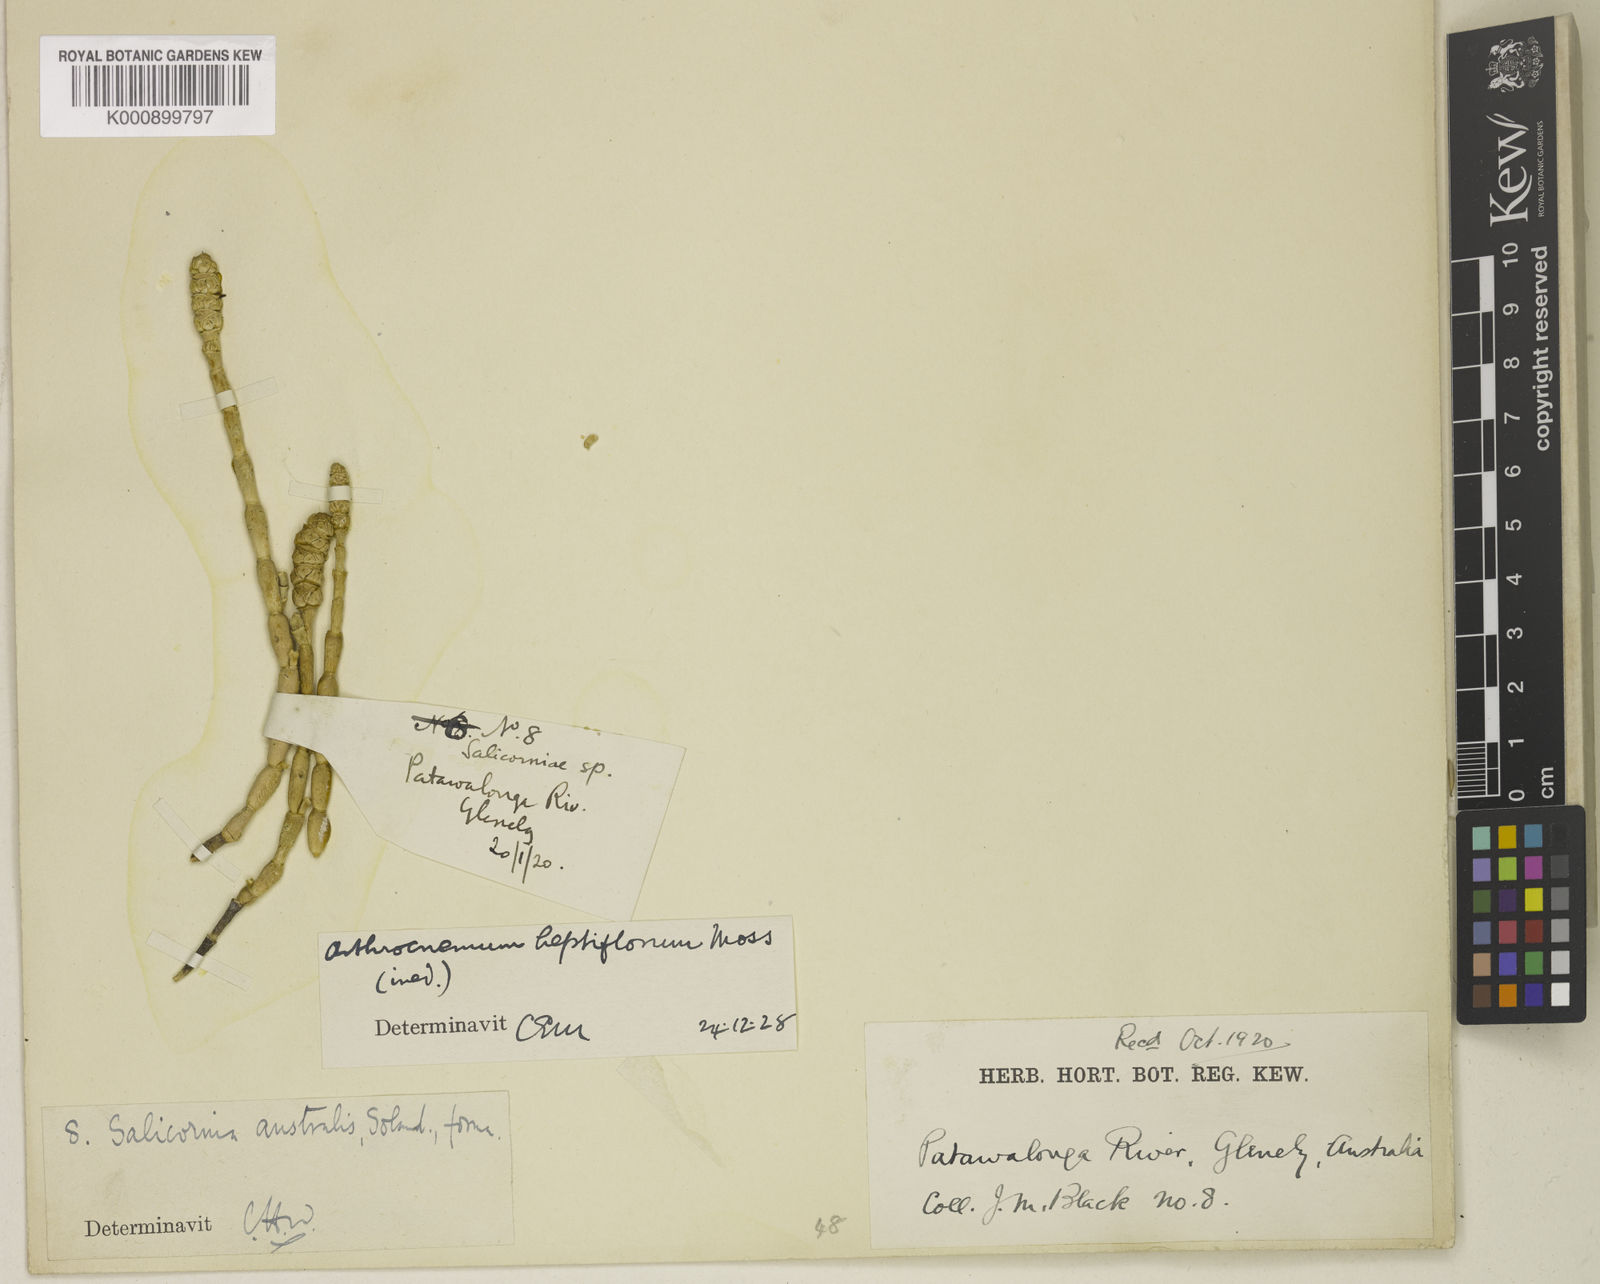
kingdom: Plantae
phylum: Tracheophyta
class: Magnoliopsida
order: Caryophyllales
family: Amaranthaceae
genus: Salicornia
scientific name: Salicornia blackiana
